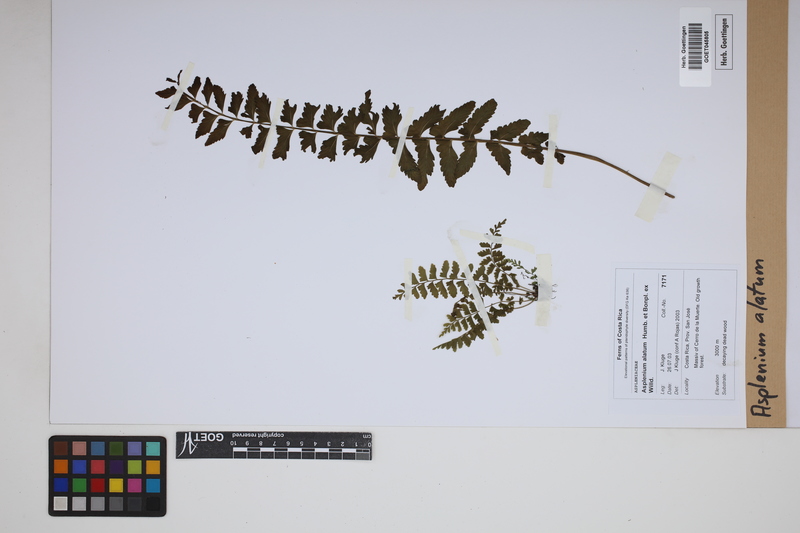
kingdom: Plantae
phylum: Tracheophyta
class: Polypodiopsida
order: Polypodiales
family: Aspleniaceae
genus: Asplenium
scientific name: Asplenium alatum
